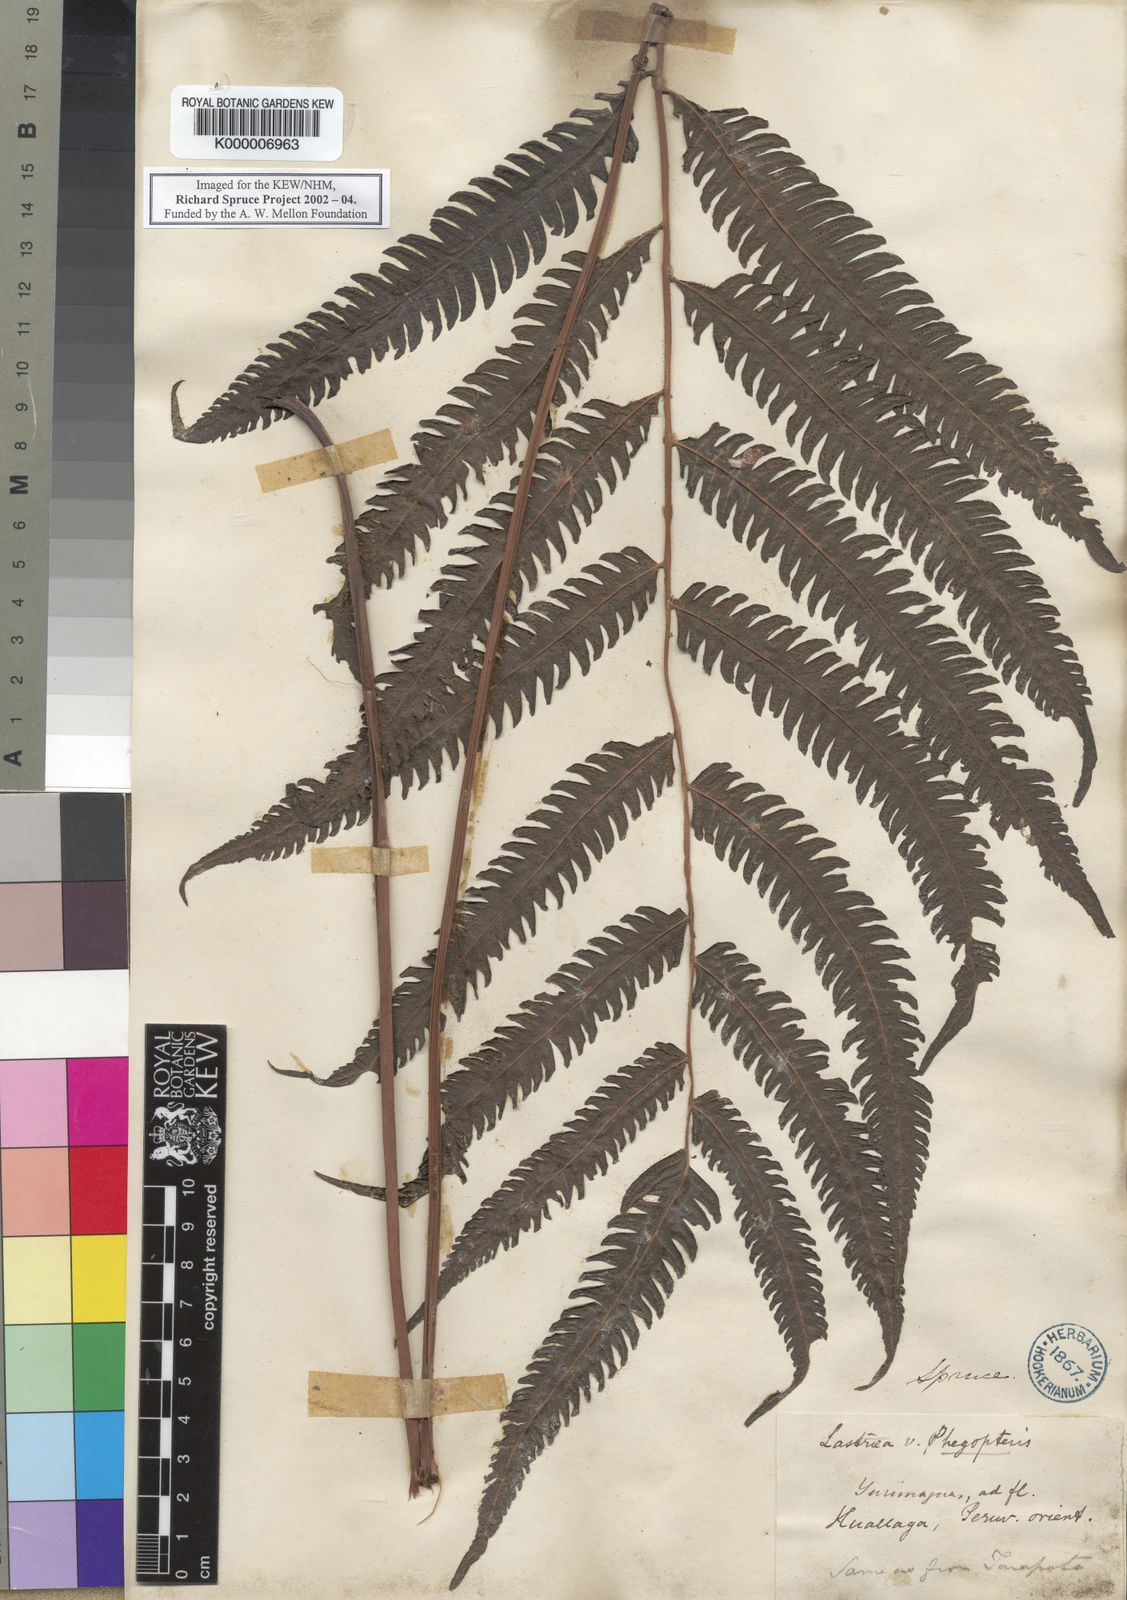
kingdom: Plantae
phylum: Tracheophyta
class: Polypodiopsida
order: Polypodiales
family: Thelypteridaceae
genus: Goniopteris
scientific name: Goniopteris tristis
